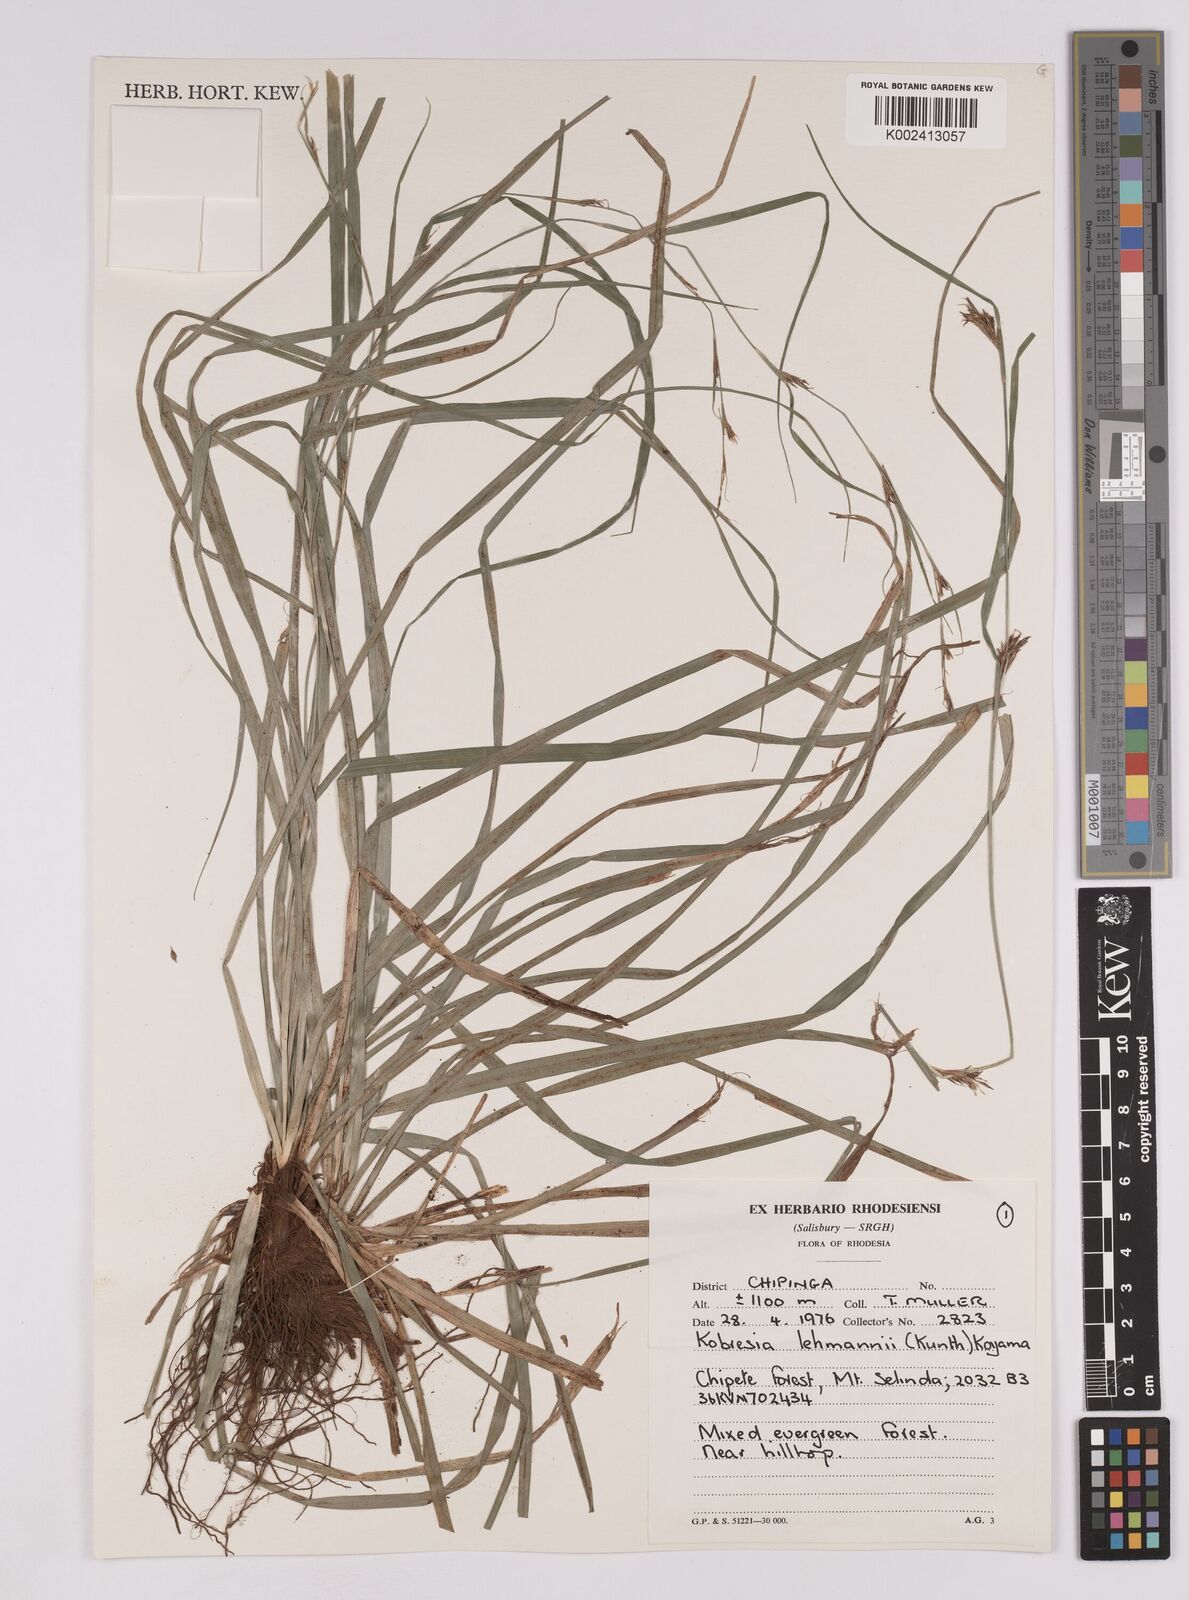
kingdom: Plantae
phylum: Tracheophyta
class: Liliopsida
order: Poales
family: Cyperaceae
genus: Carex
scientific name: Carex uhligii
